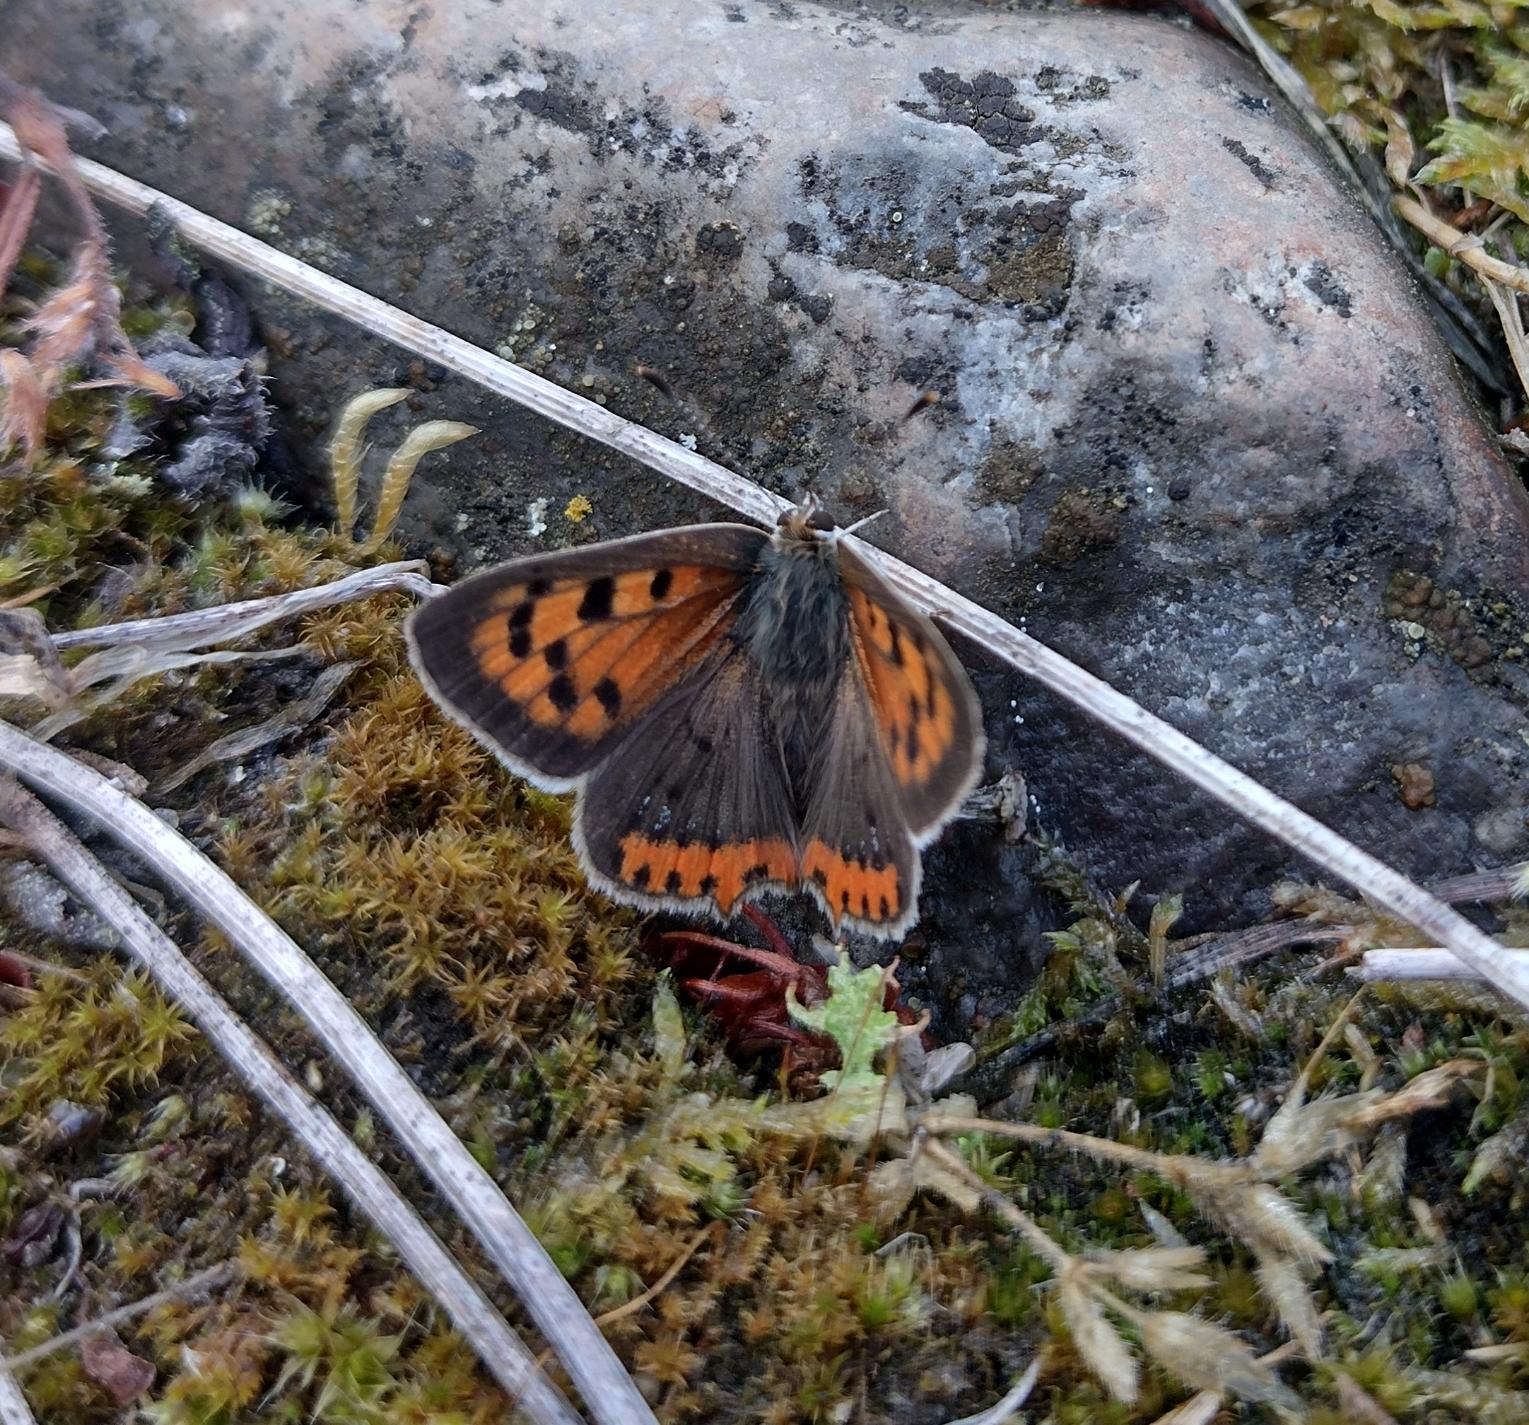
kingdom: Animalia
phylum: Arthropoda
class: Insecta
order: Lepidoptera
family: Lycaenidae
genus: Lycaena
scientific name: Lycaena phlaeas
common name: Lille ildfugl
